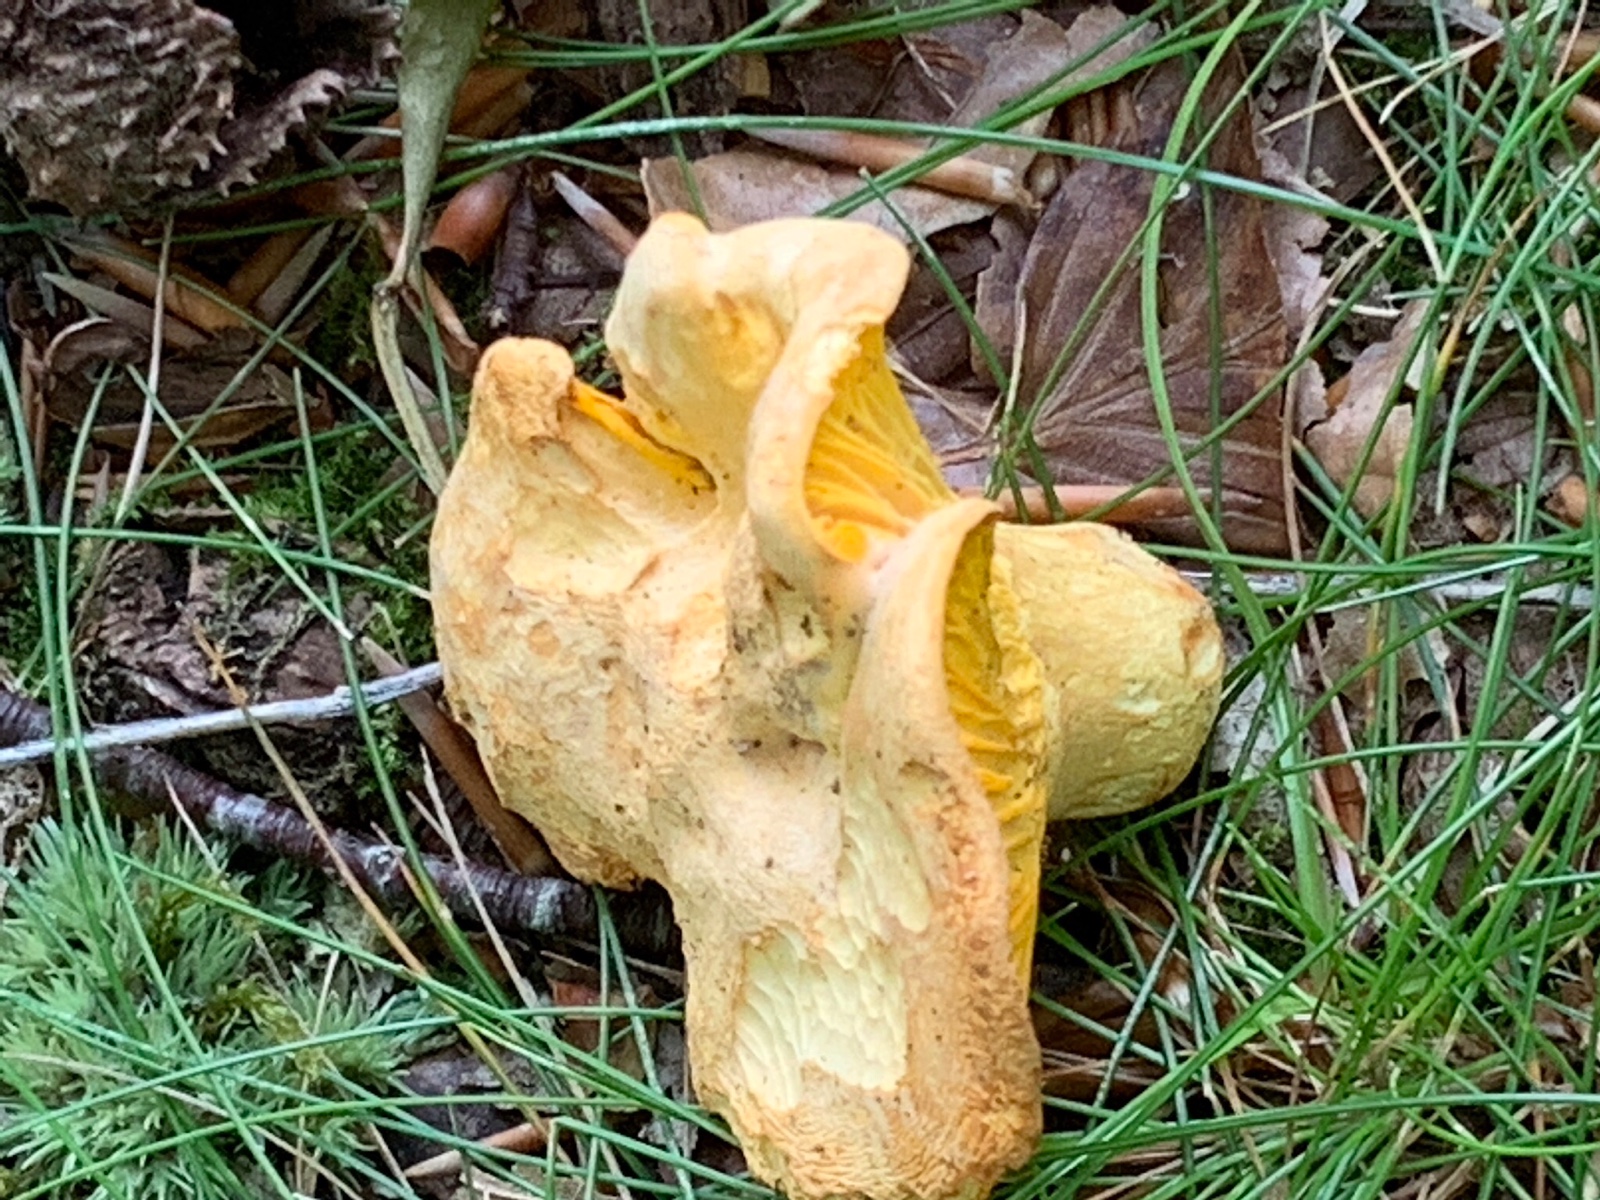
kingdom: Fungi
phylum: Basidiomycota
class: Agaricomycetes
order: Cantharellales
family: Hydnaceae
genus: Cantharellus
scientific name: Cantharellus pallens
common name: bleg kantarel
